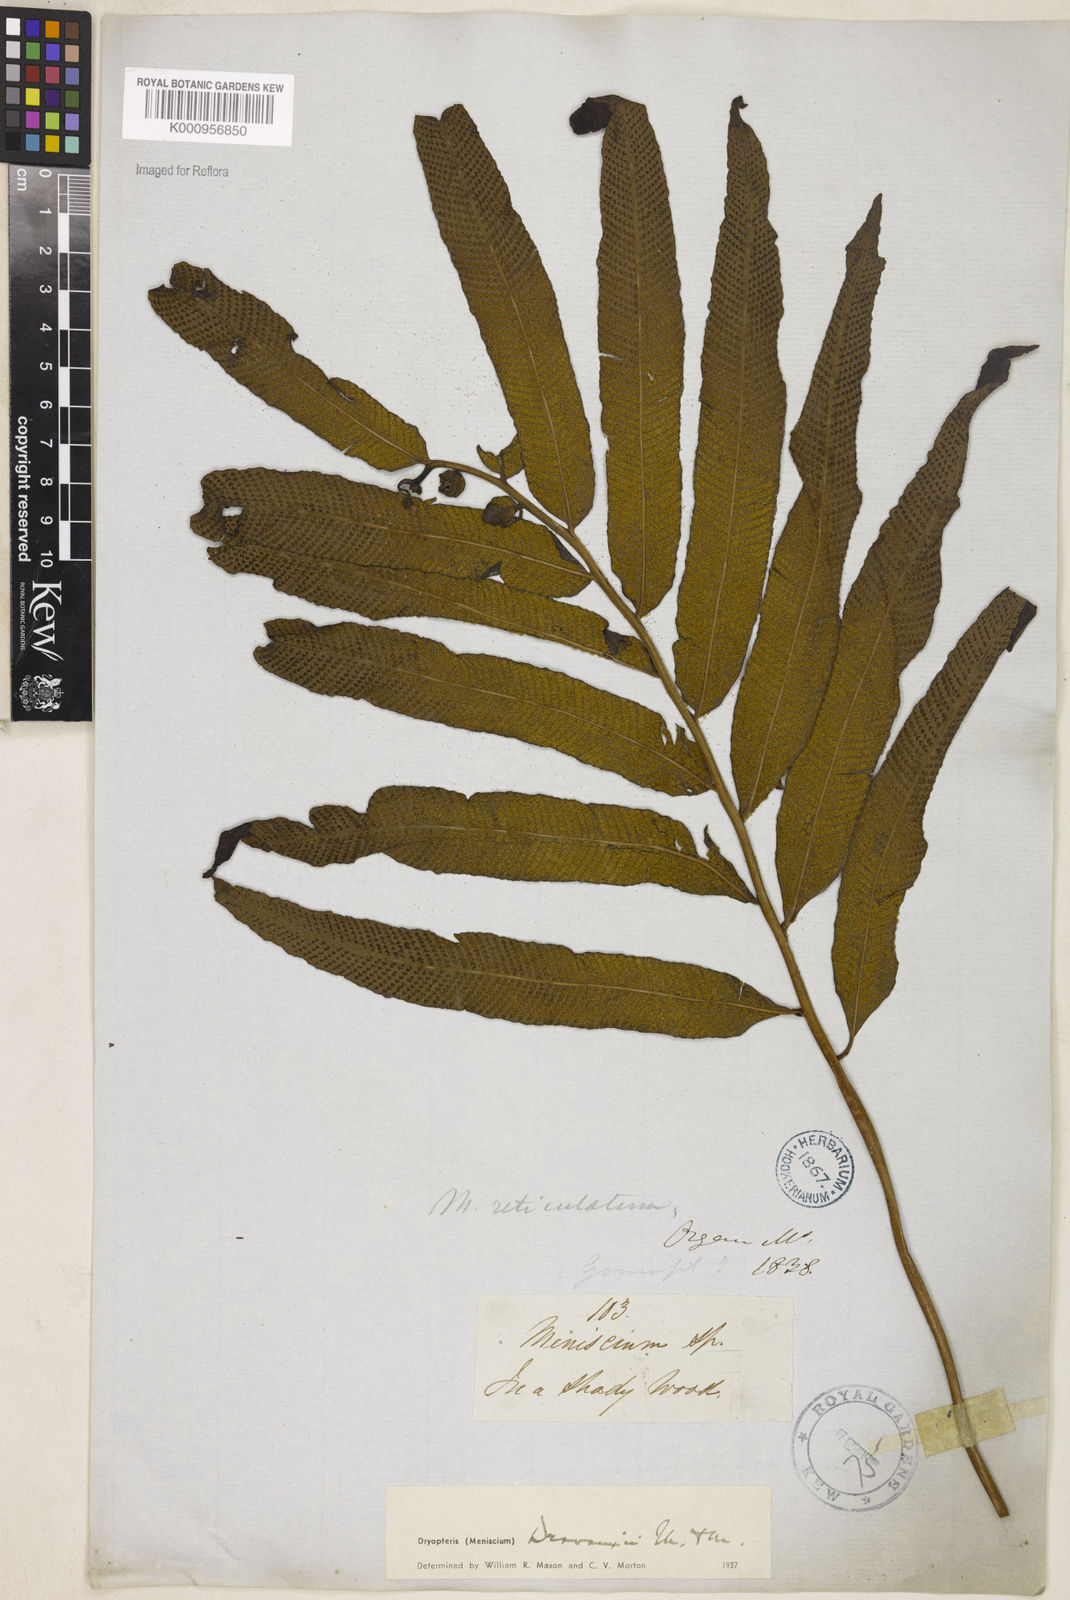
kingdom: Plantae
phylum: Tracheophyta
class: Polypodiopsida
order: Polypodiales
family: Thelypteridaceae
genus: Meniscium
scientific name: Meniscium arborescens
